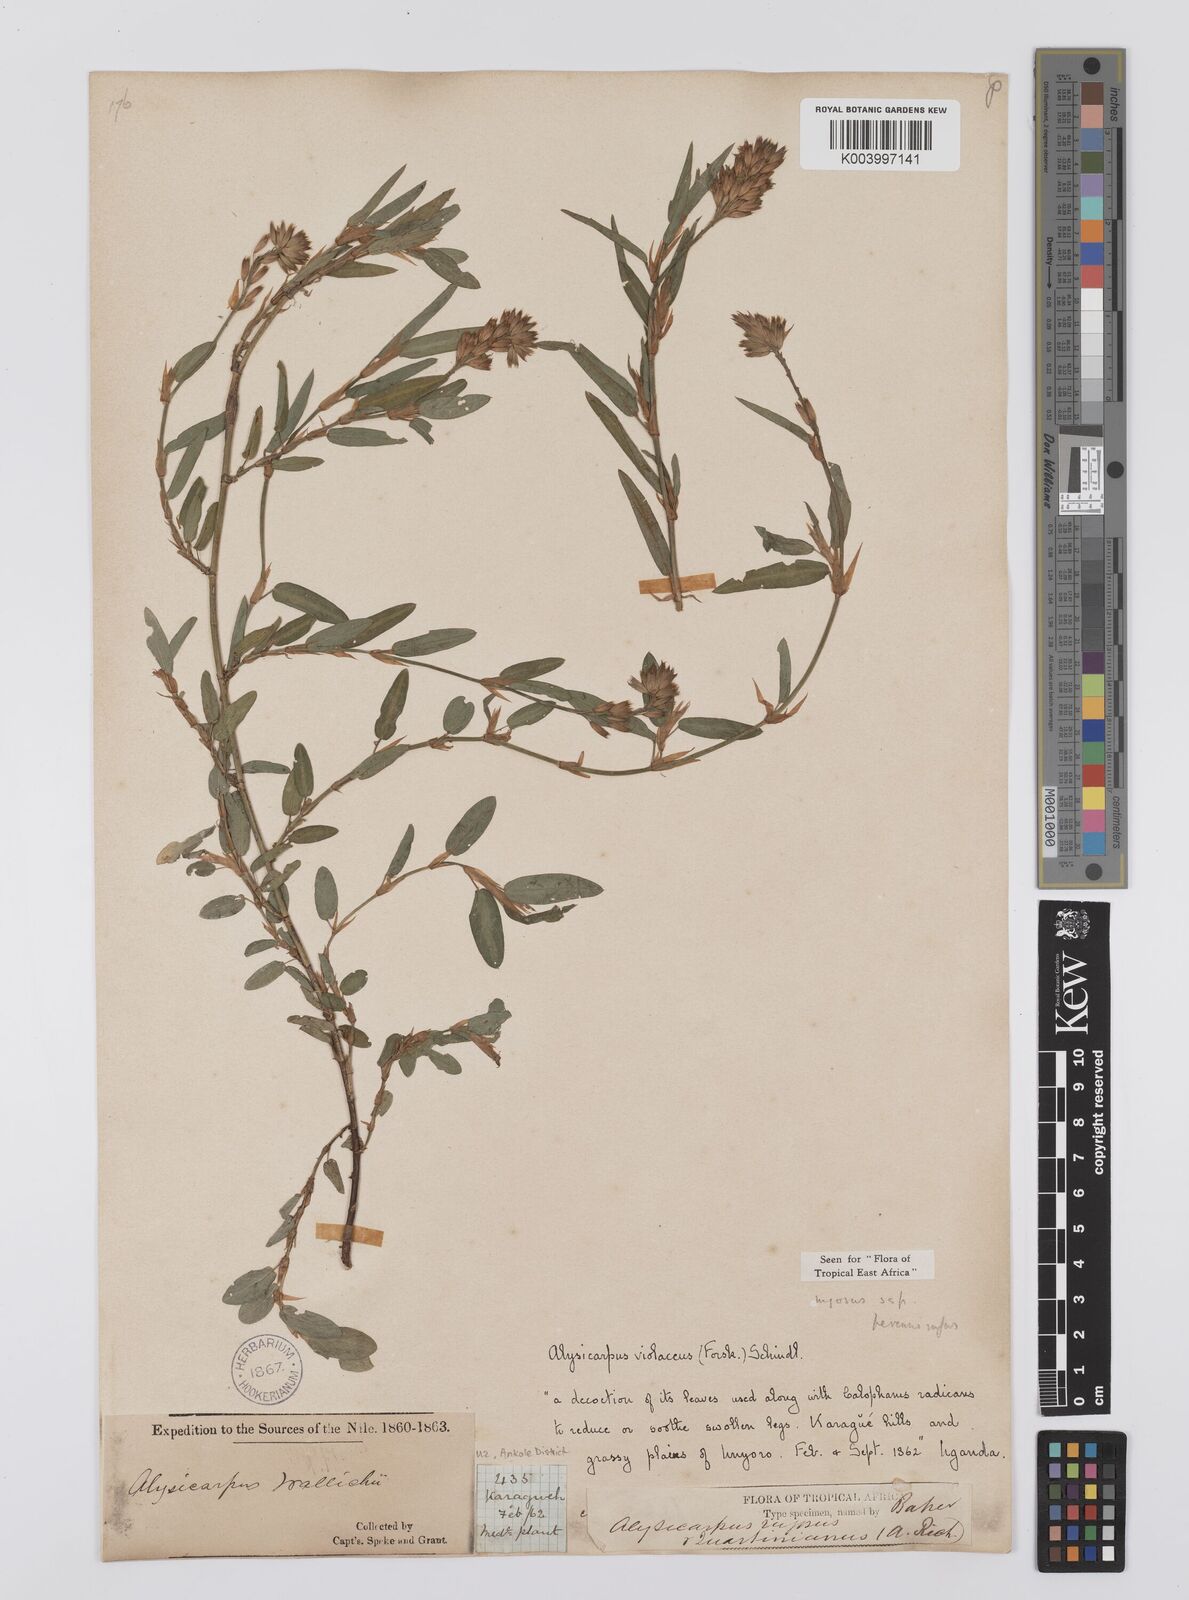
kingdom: Plantae
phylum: Tracheophyta
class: Magnoliopsida
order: Fabales
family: Fabaceae
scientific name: Fabaceae
